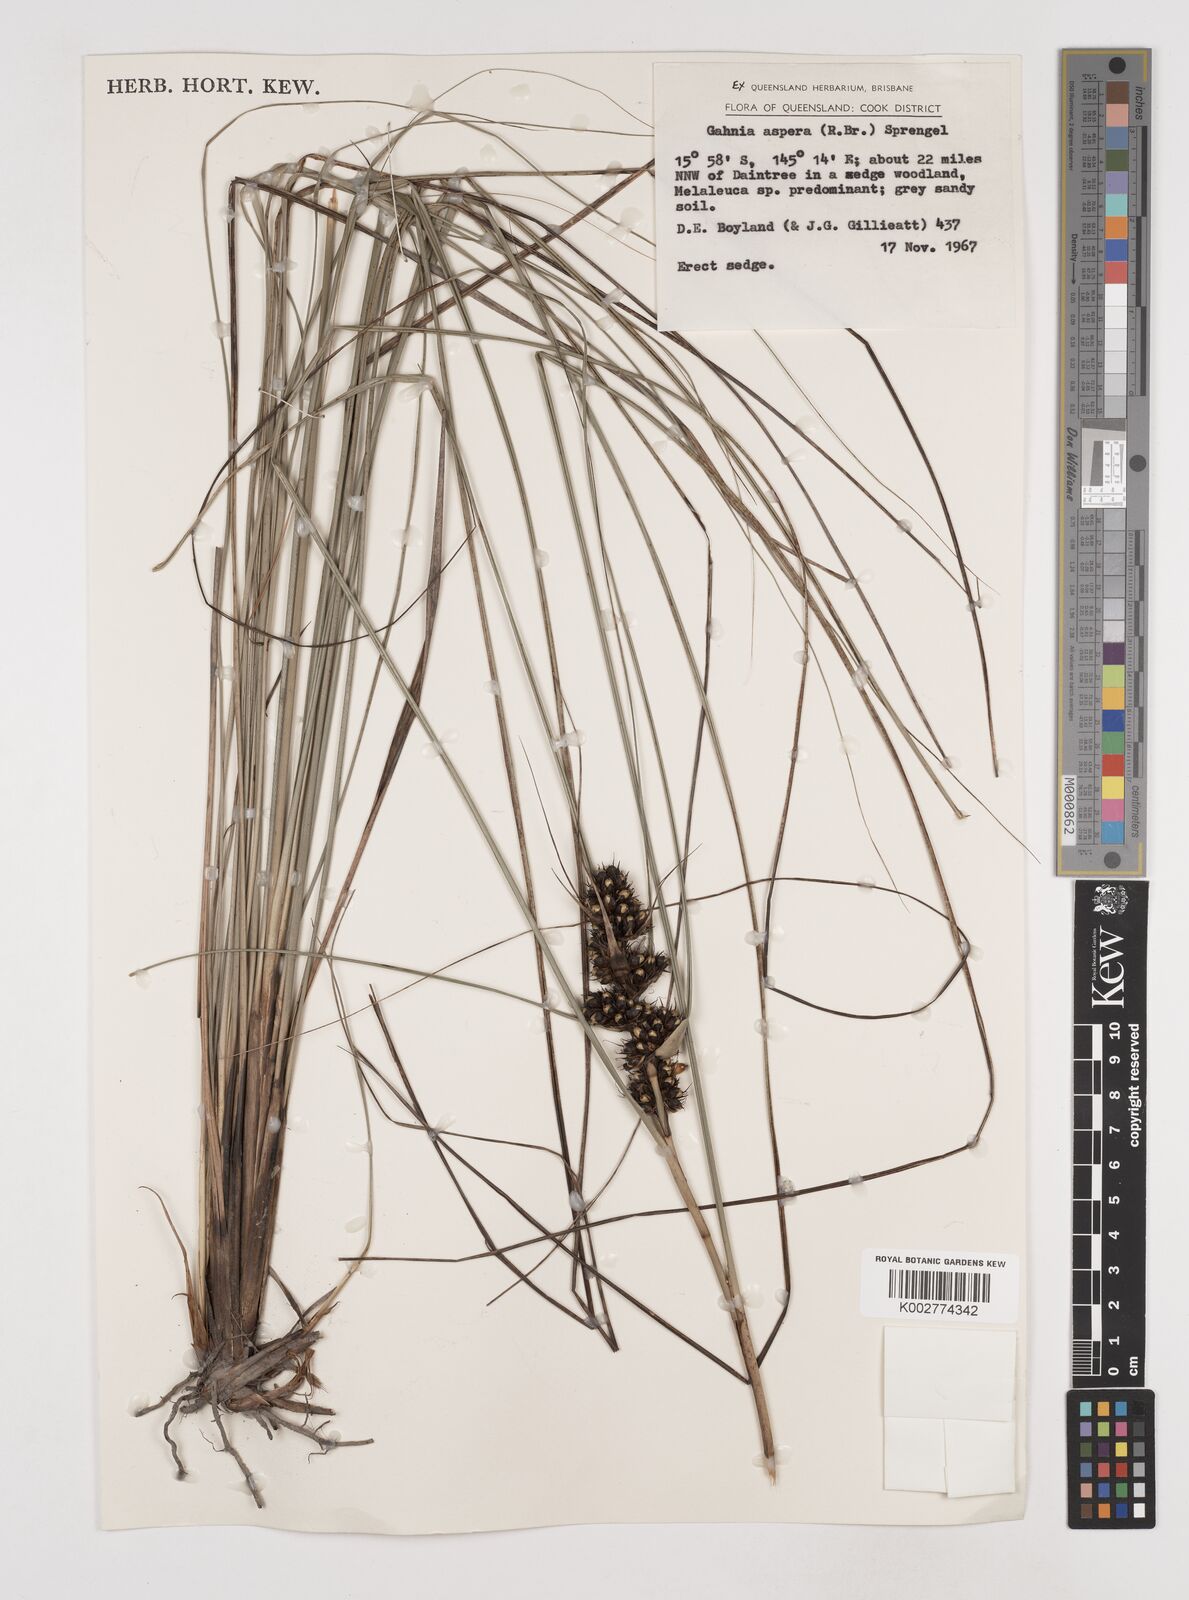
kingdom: Plantae
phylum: Tracheophyta
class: Liliopsida
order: Poales
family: Cyperaceae
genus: Gahnia
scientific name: Gahnia aspera
